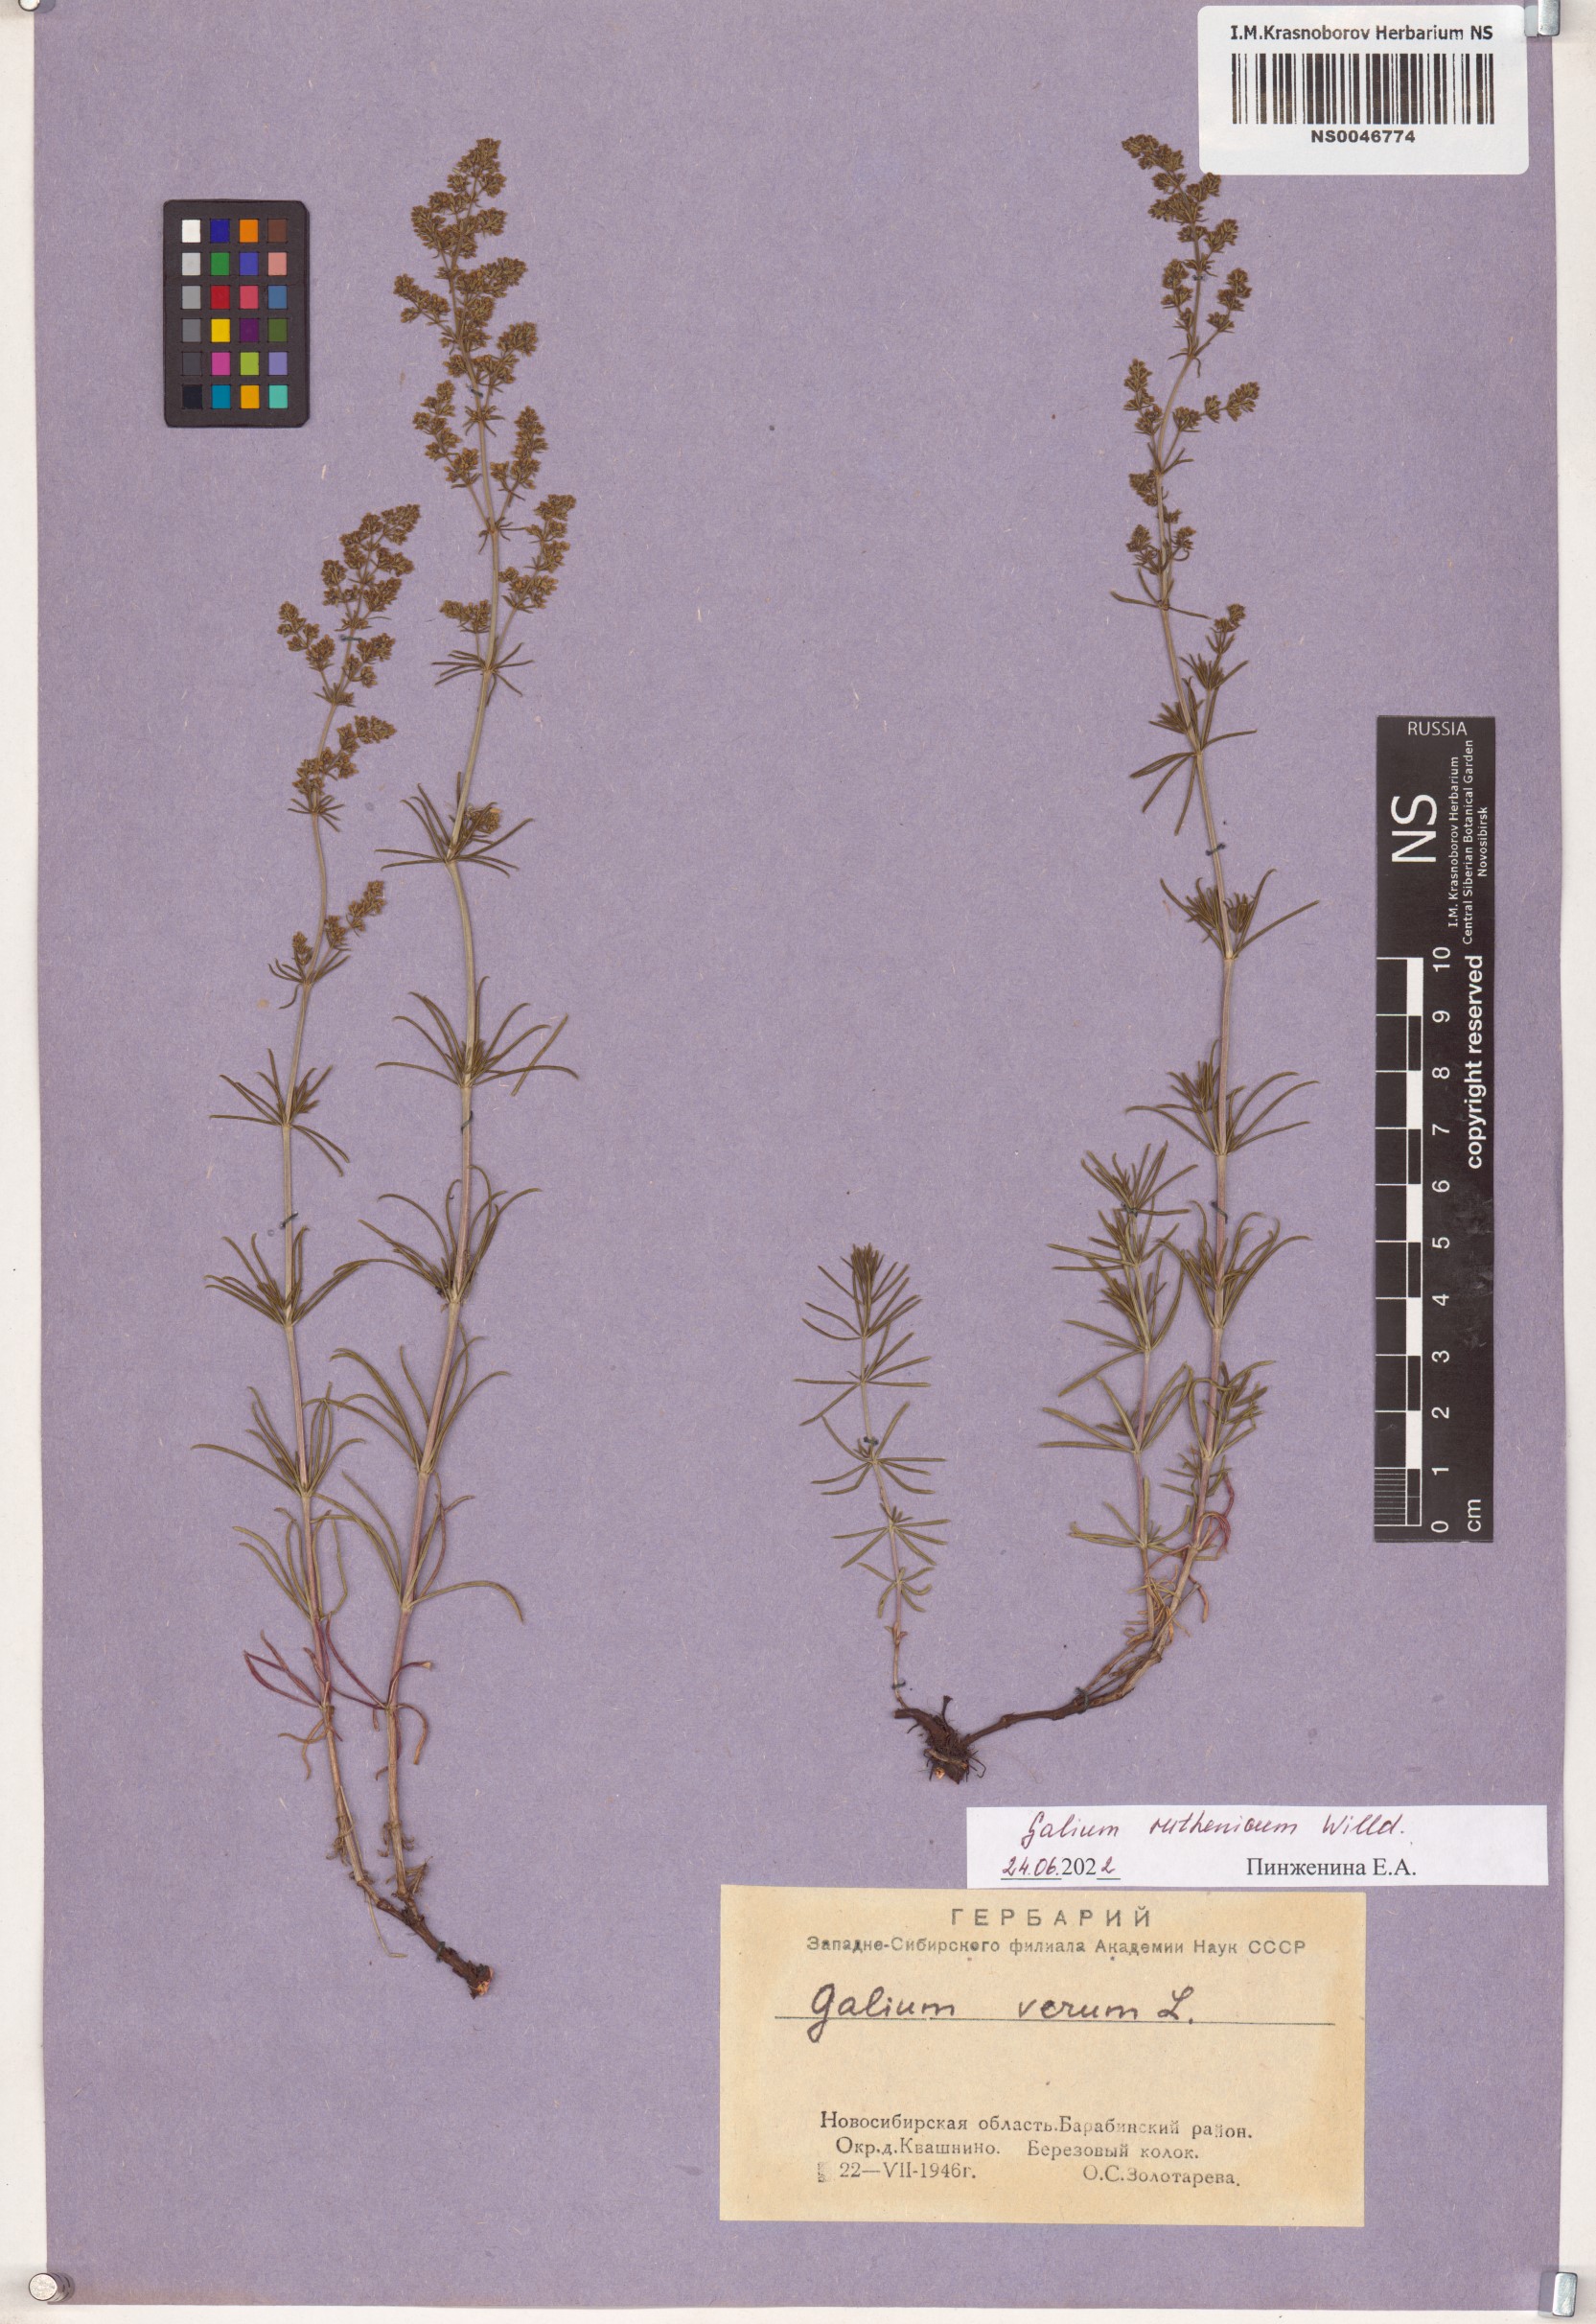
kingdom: Plantae
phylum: Tracheophyta
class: Magnoliopsida
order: Gentianales
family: Rubiaceae
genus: Galium
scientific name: Galium verum
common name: Lady's bedstraw
